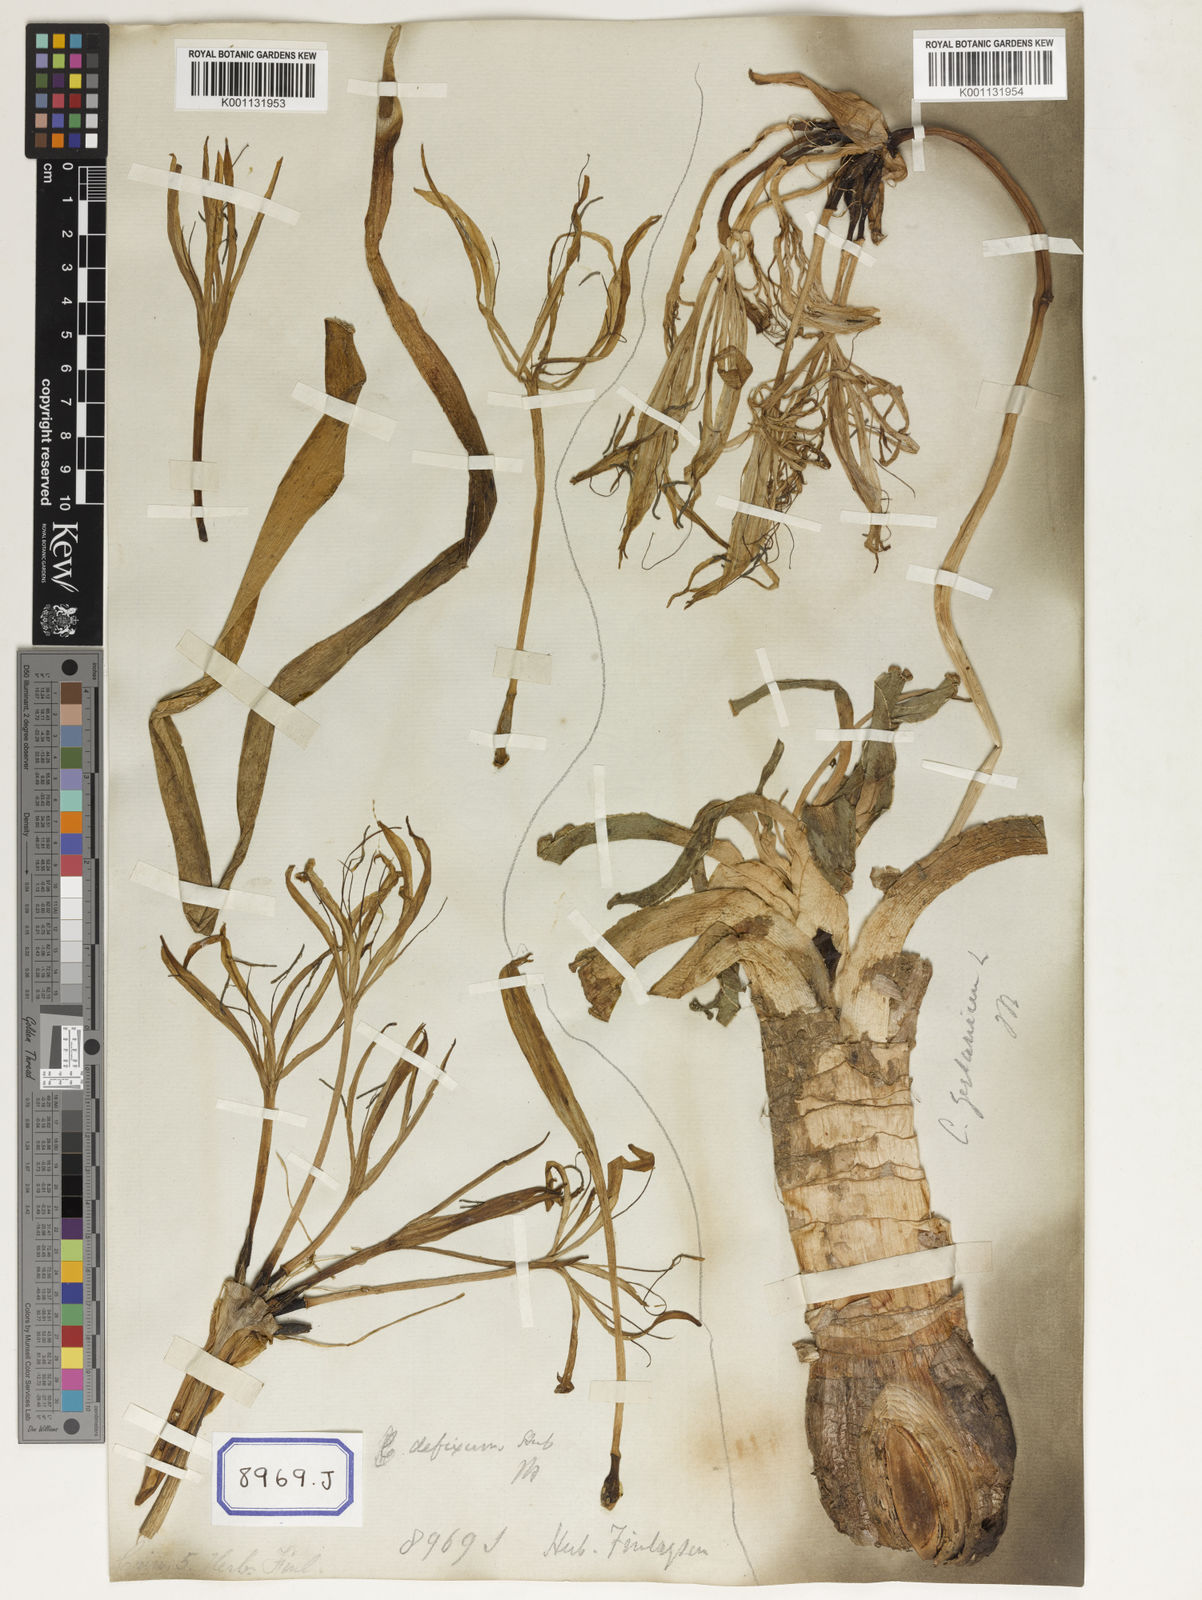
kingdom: Plantae
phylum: Tracheophyta
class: Liliopsida
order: Asparagales
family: Amaryllidaceae
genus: Crinum
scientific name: Crinum asiaticum
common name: Poisonbulb
